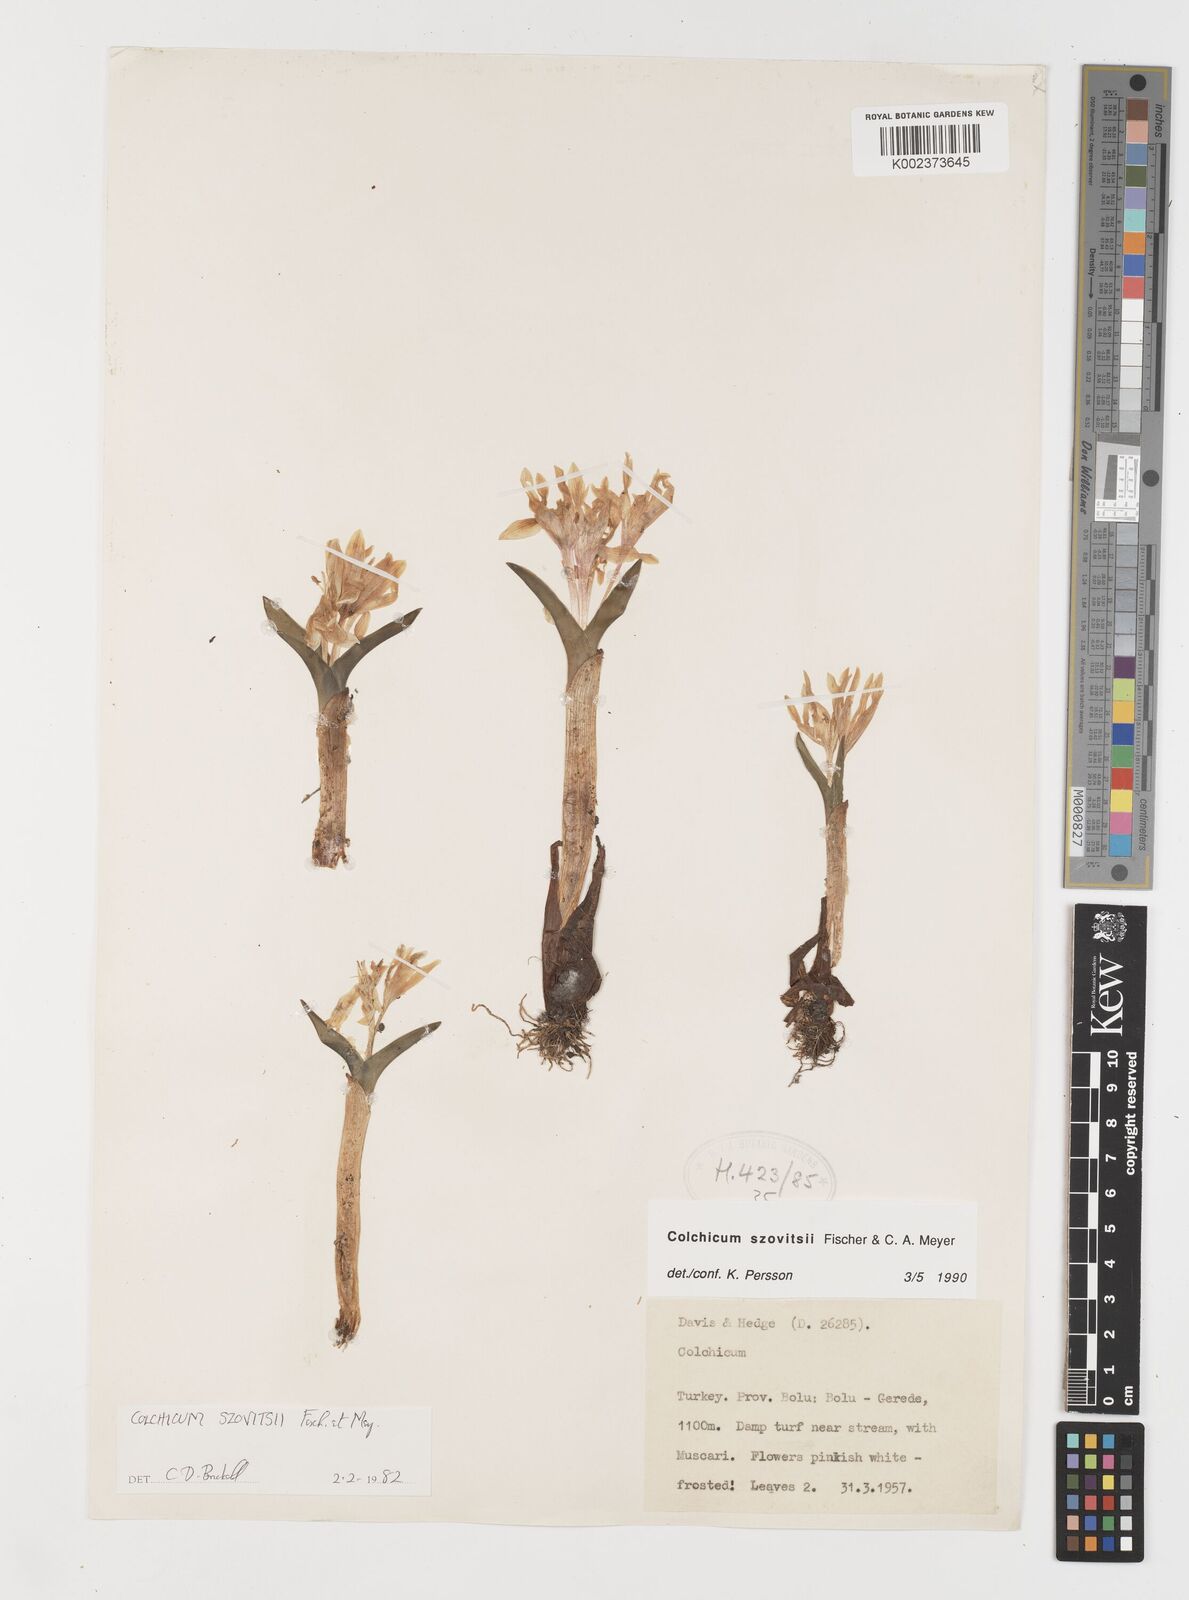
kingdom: Plantae
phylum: Tracheophyta
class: Liliopsida
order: Liliales
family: Colchicaceae
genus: Colchicum
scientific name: Colchicum szovitsii
